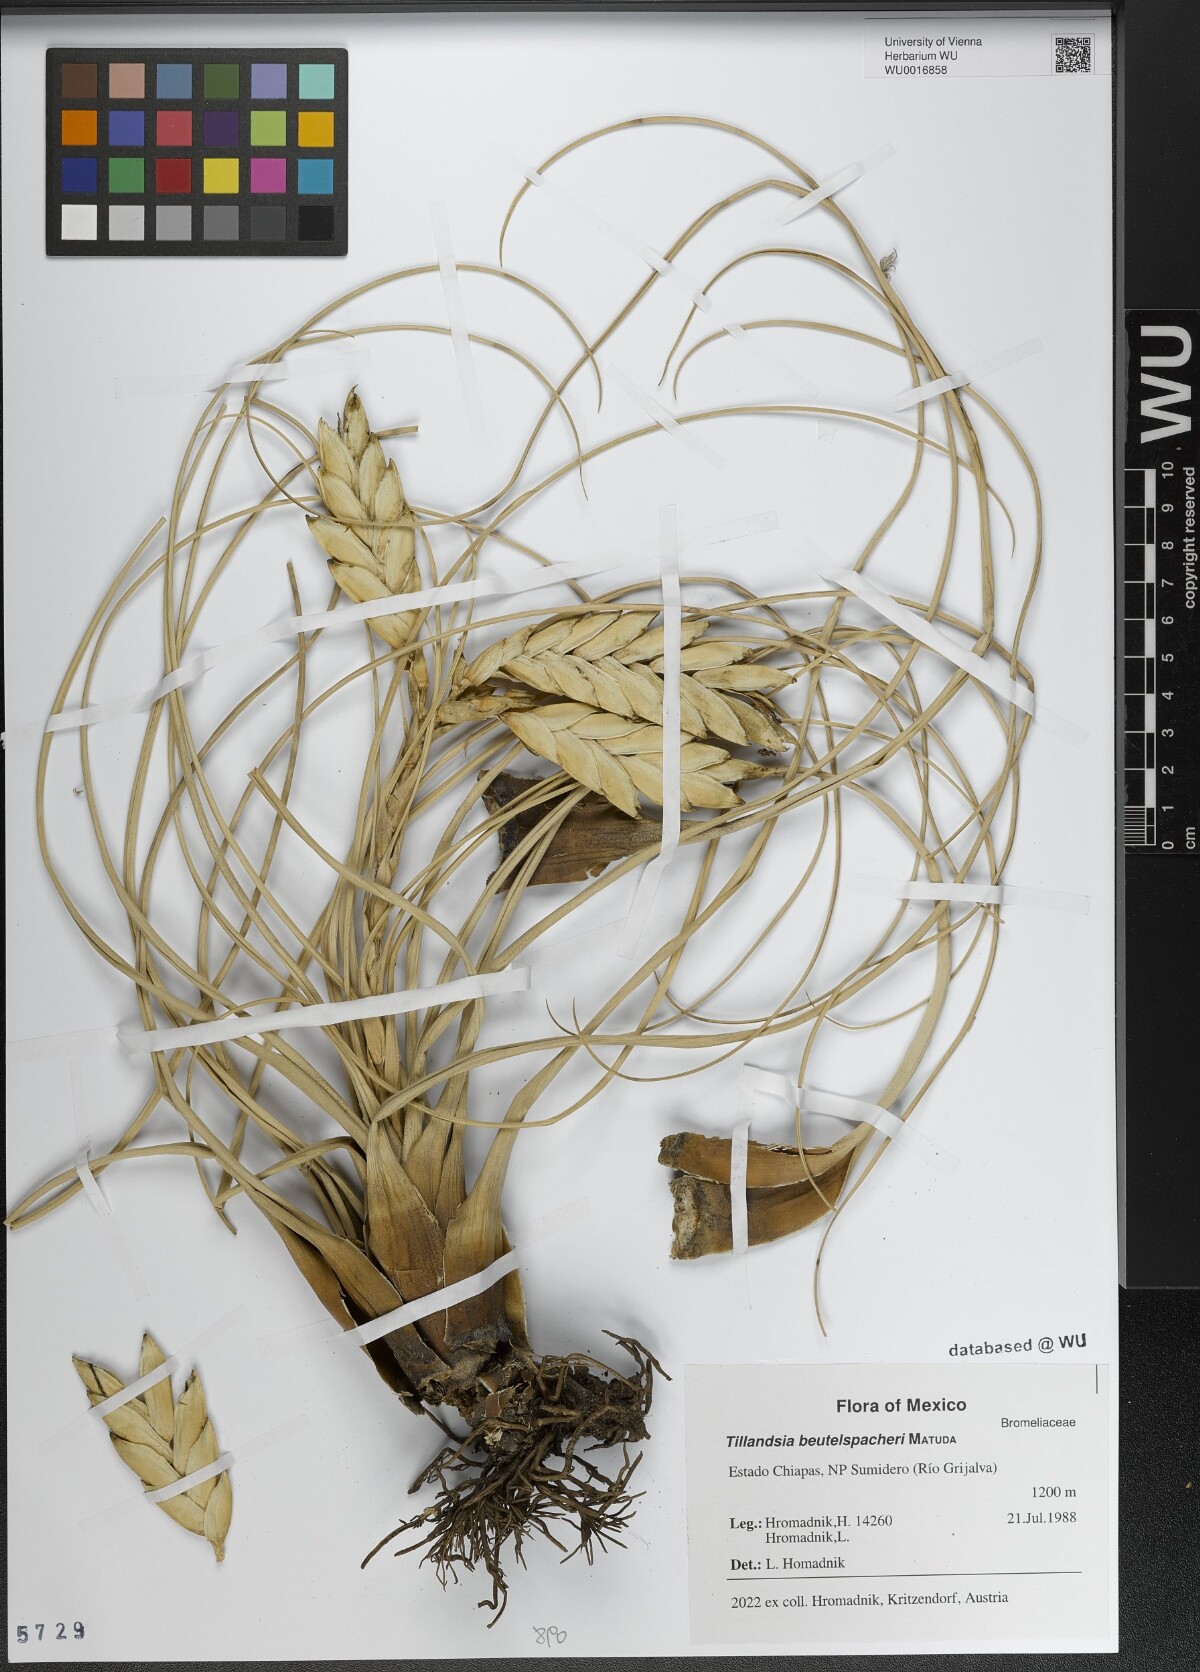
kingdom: Plantae
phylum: Tracheophyta
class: Liliopsida
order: Poales
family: Bromeliaceae
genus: Tillandsia
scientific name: Tillandsia fasciculata
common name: Giant airplant
